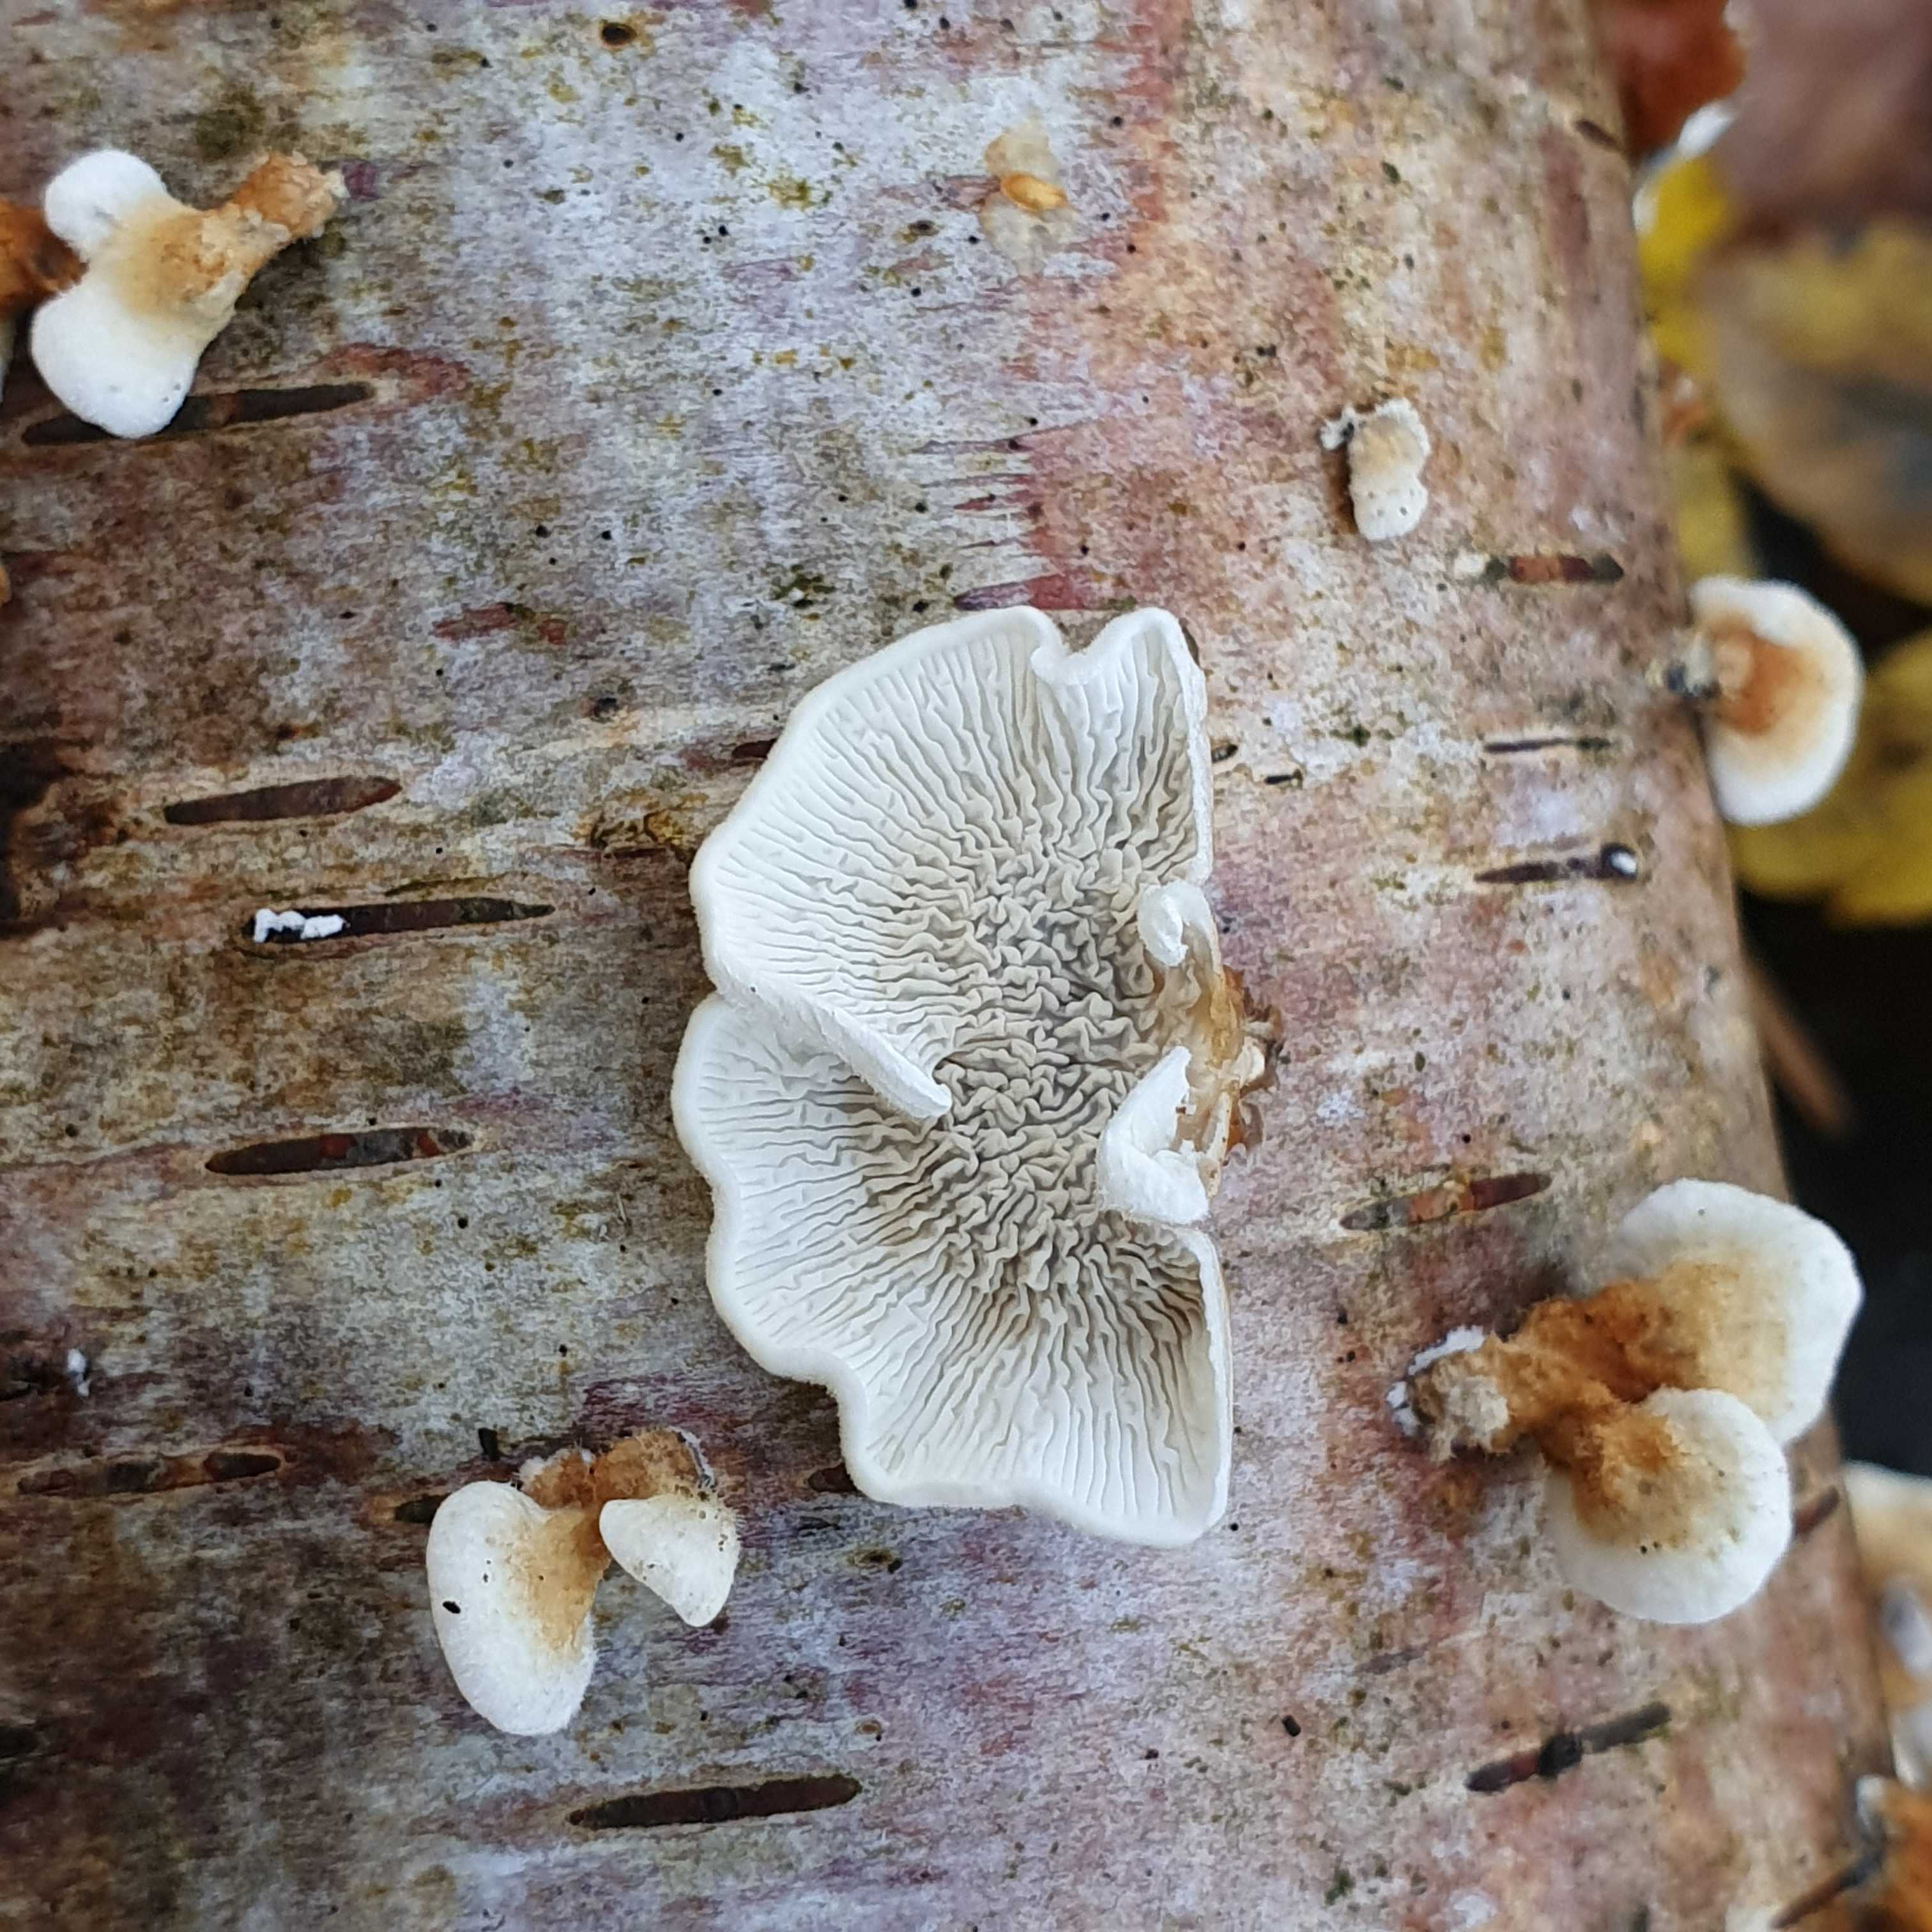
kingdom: Fungi
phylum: Basidiomycota
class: Agaricomycetes
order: Amylocorticiales
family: Amylocorticiaceae
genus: Plicaturopsis
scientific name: Plicaturopsis crispa
